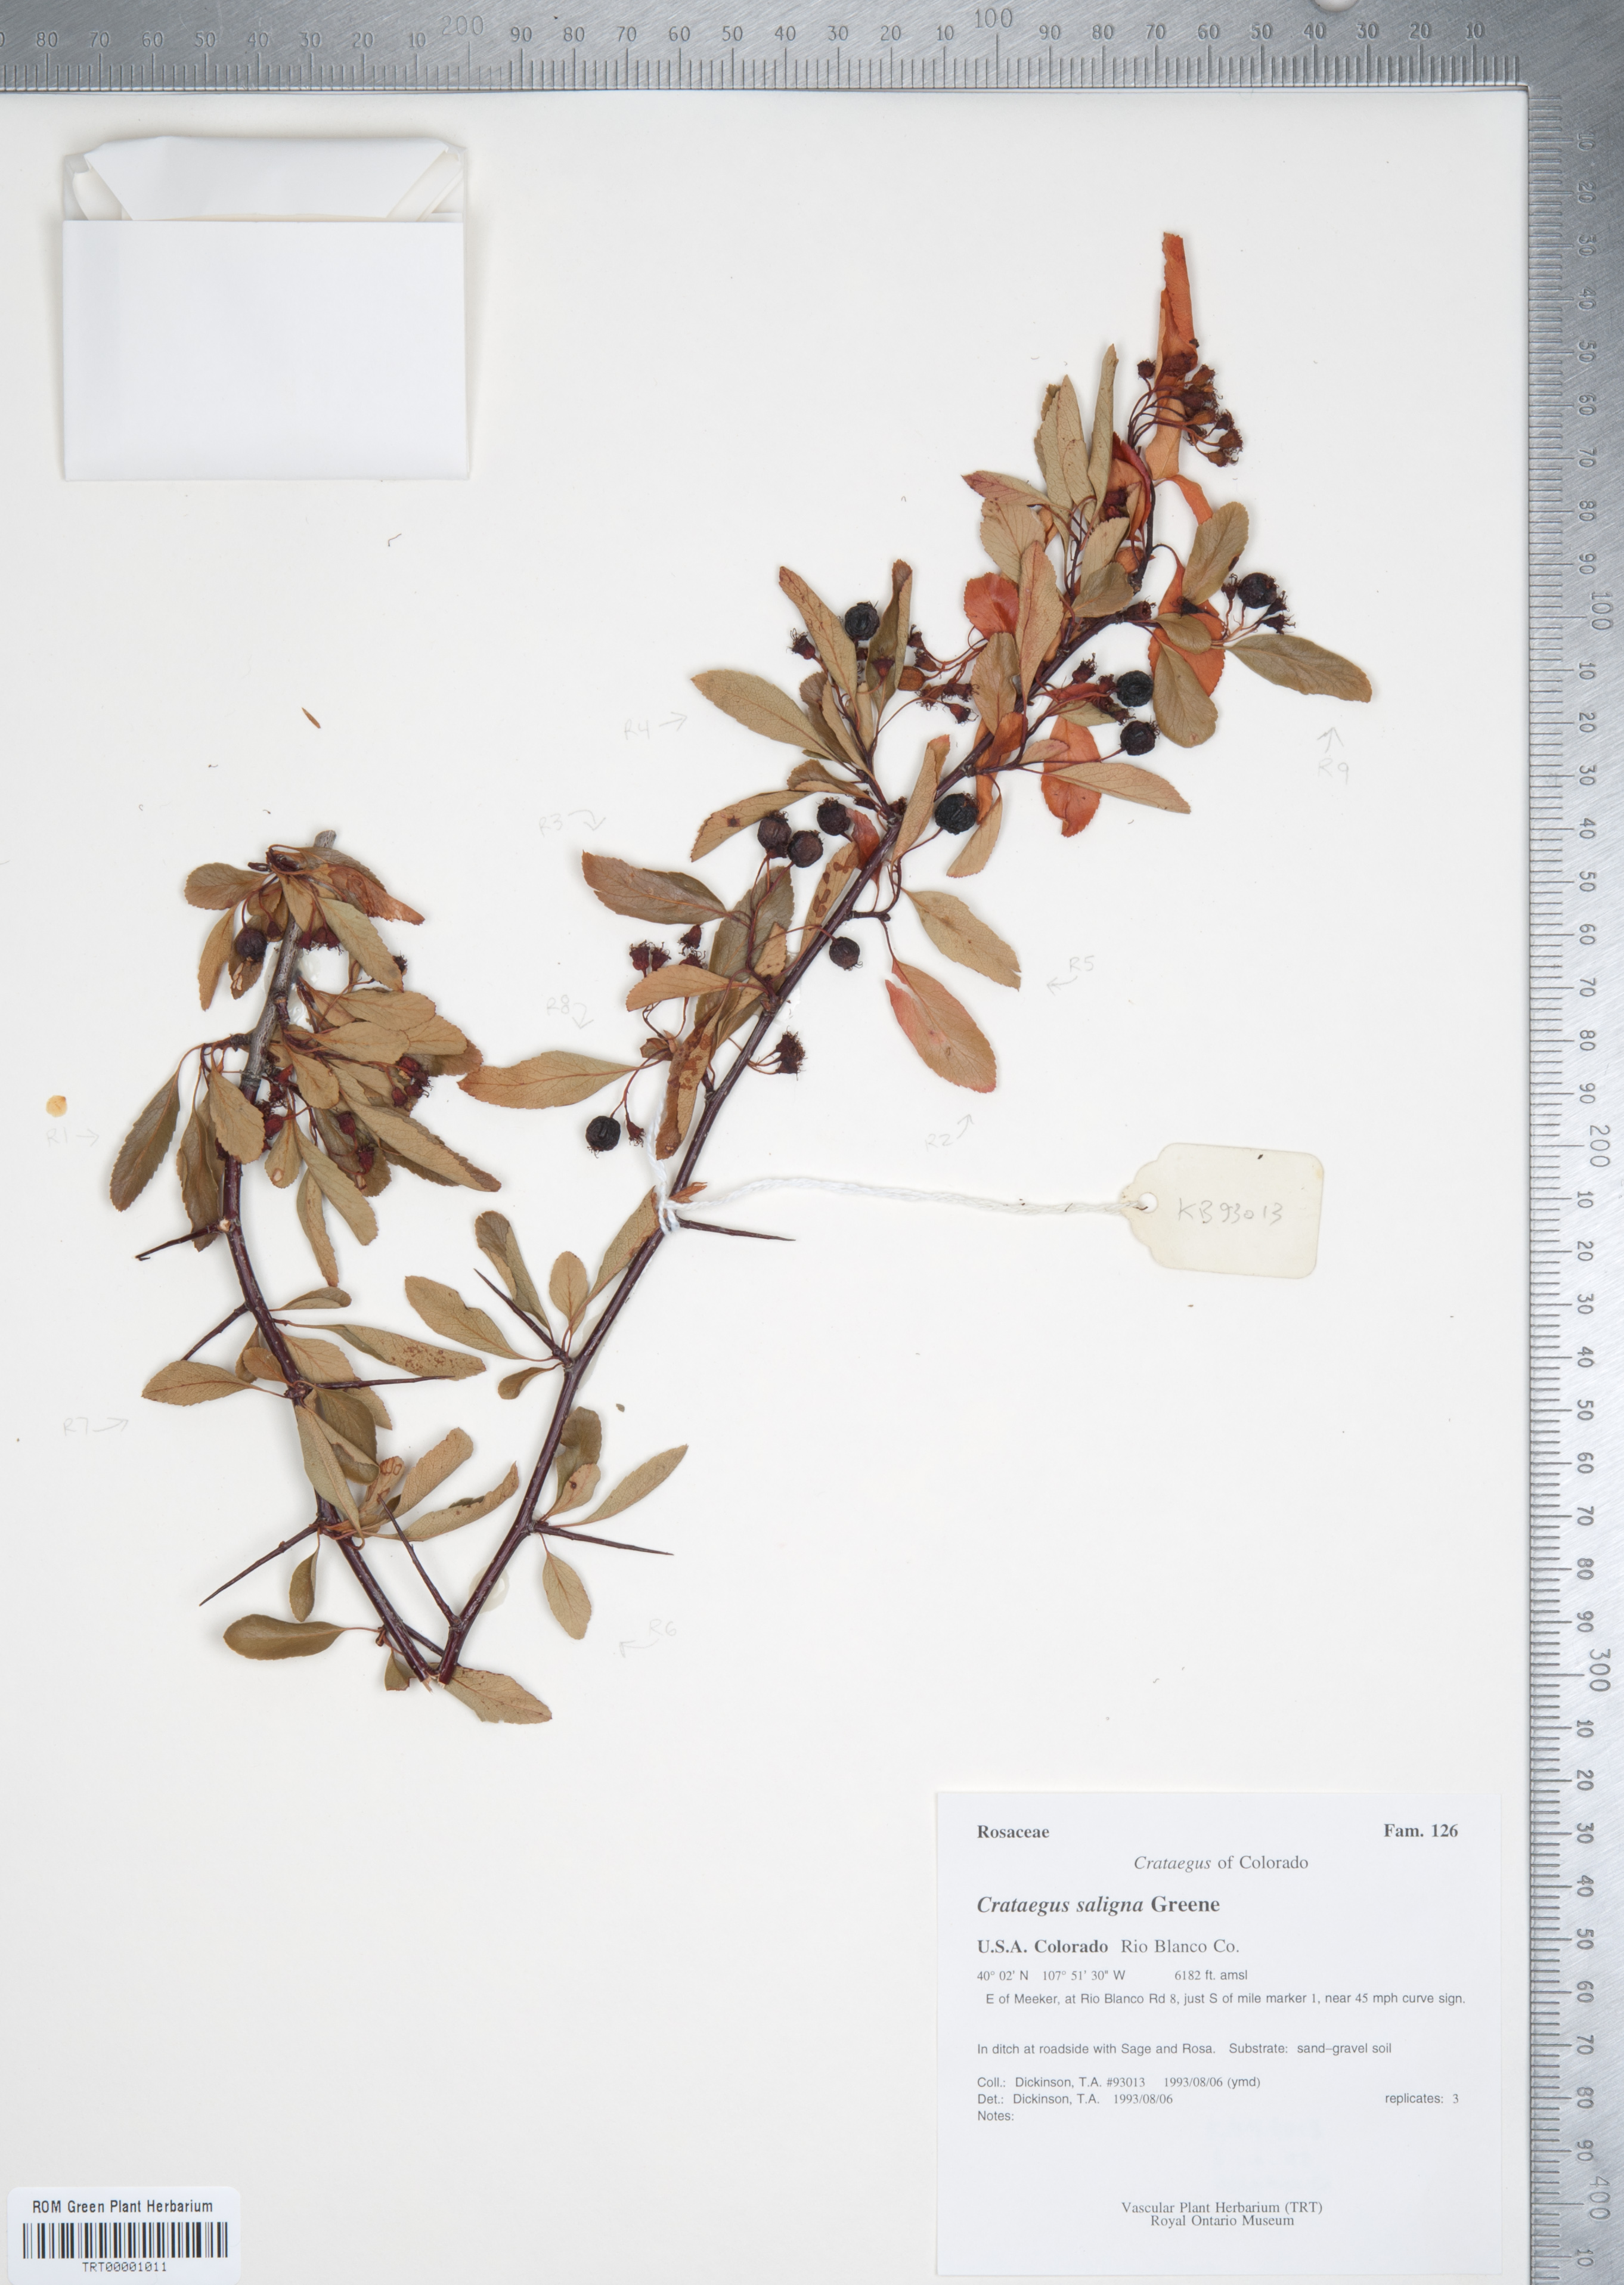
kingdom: Plantae
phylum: Tracheophyta
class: Magnoliopsida
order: Rosales
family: Rosaceae
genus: Crataegus
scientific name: Crataegus saligna
